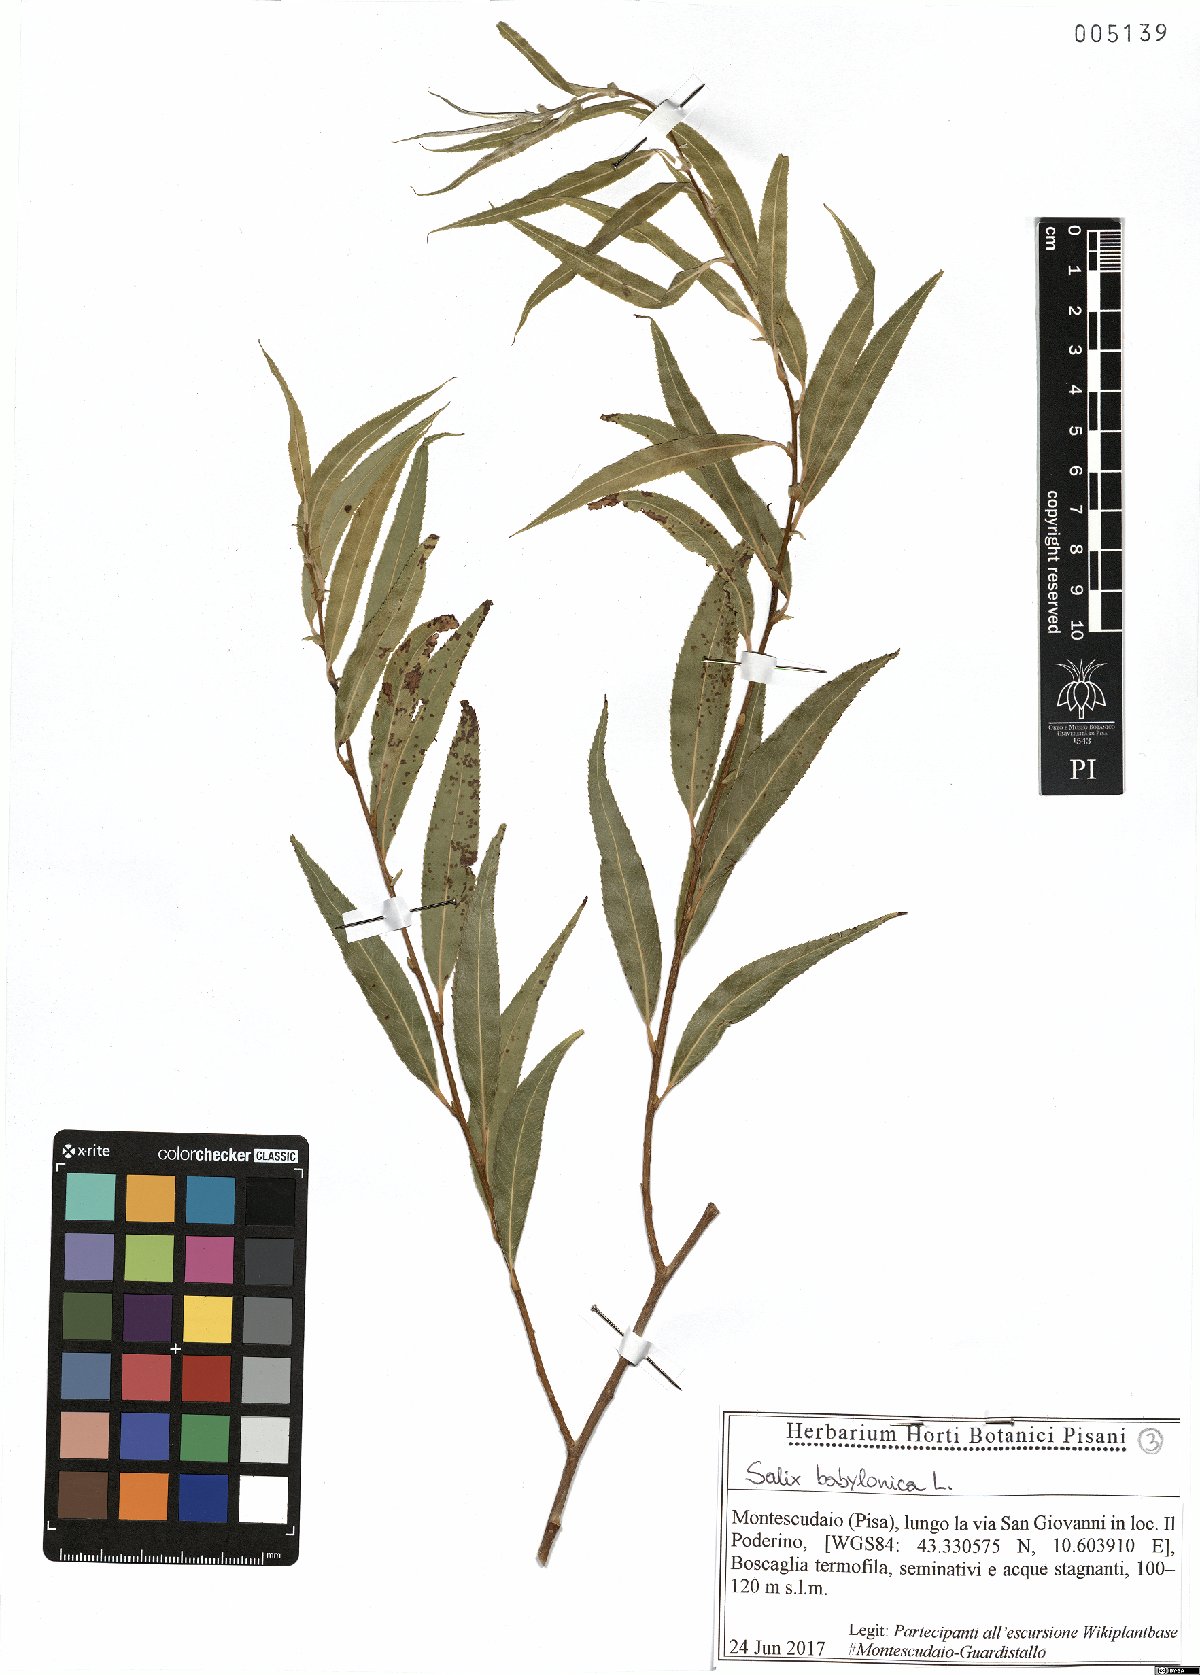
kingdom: Plantae
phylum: Tracheophyta
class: Magnoliopsida
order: Malpighiales
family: Salicaceae
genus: Salix
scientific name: Salix babylonica
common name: Weeping willow
